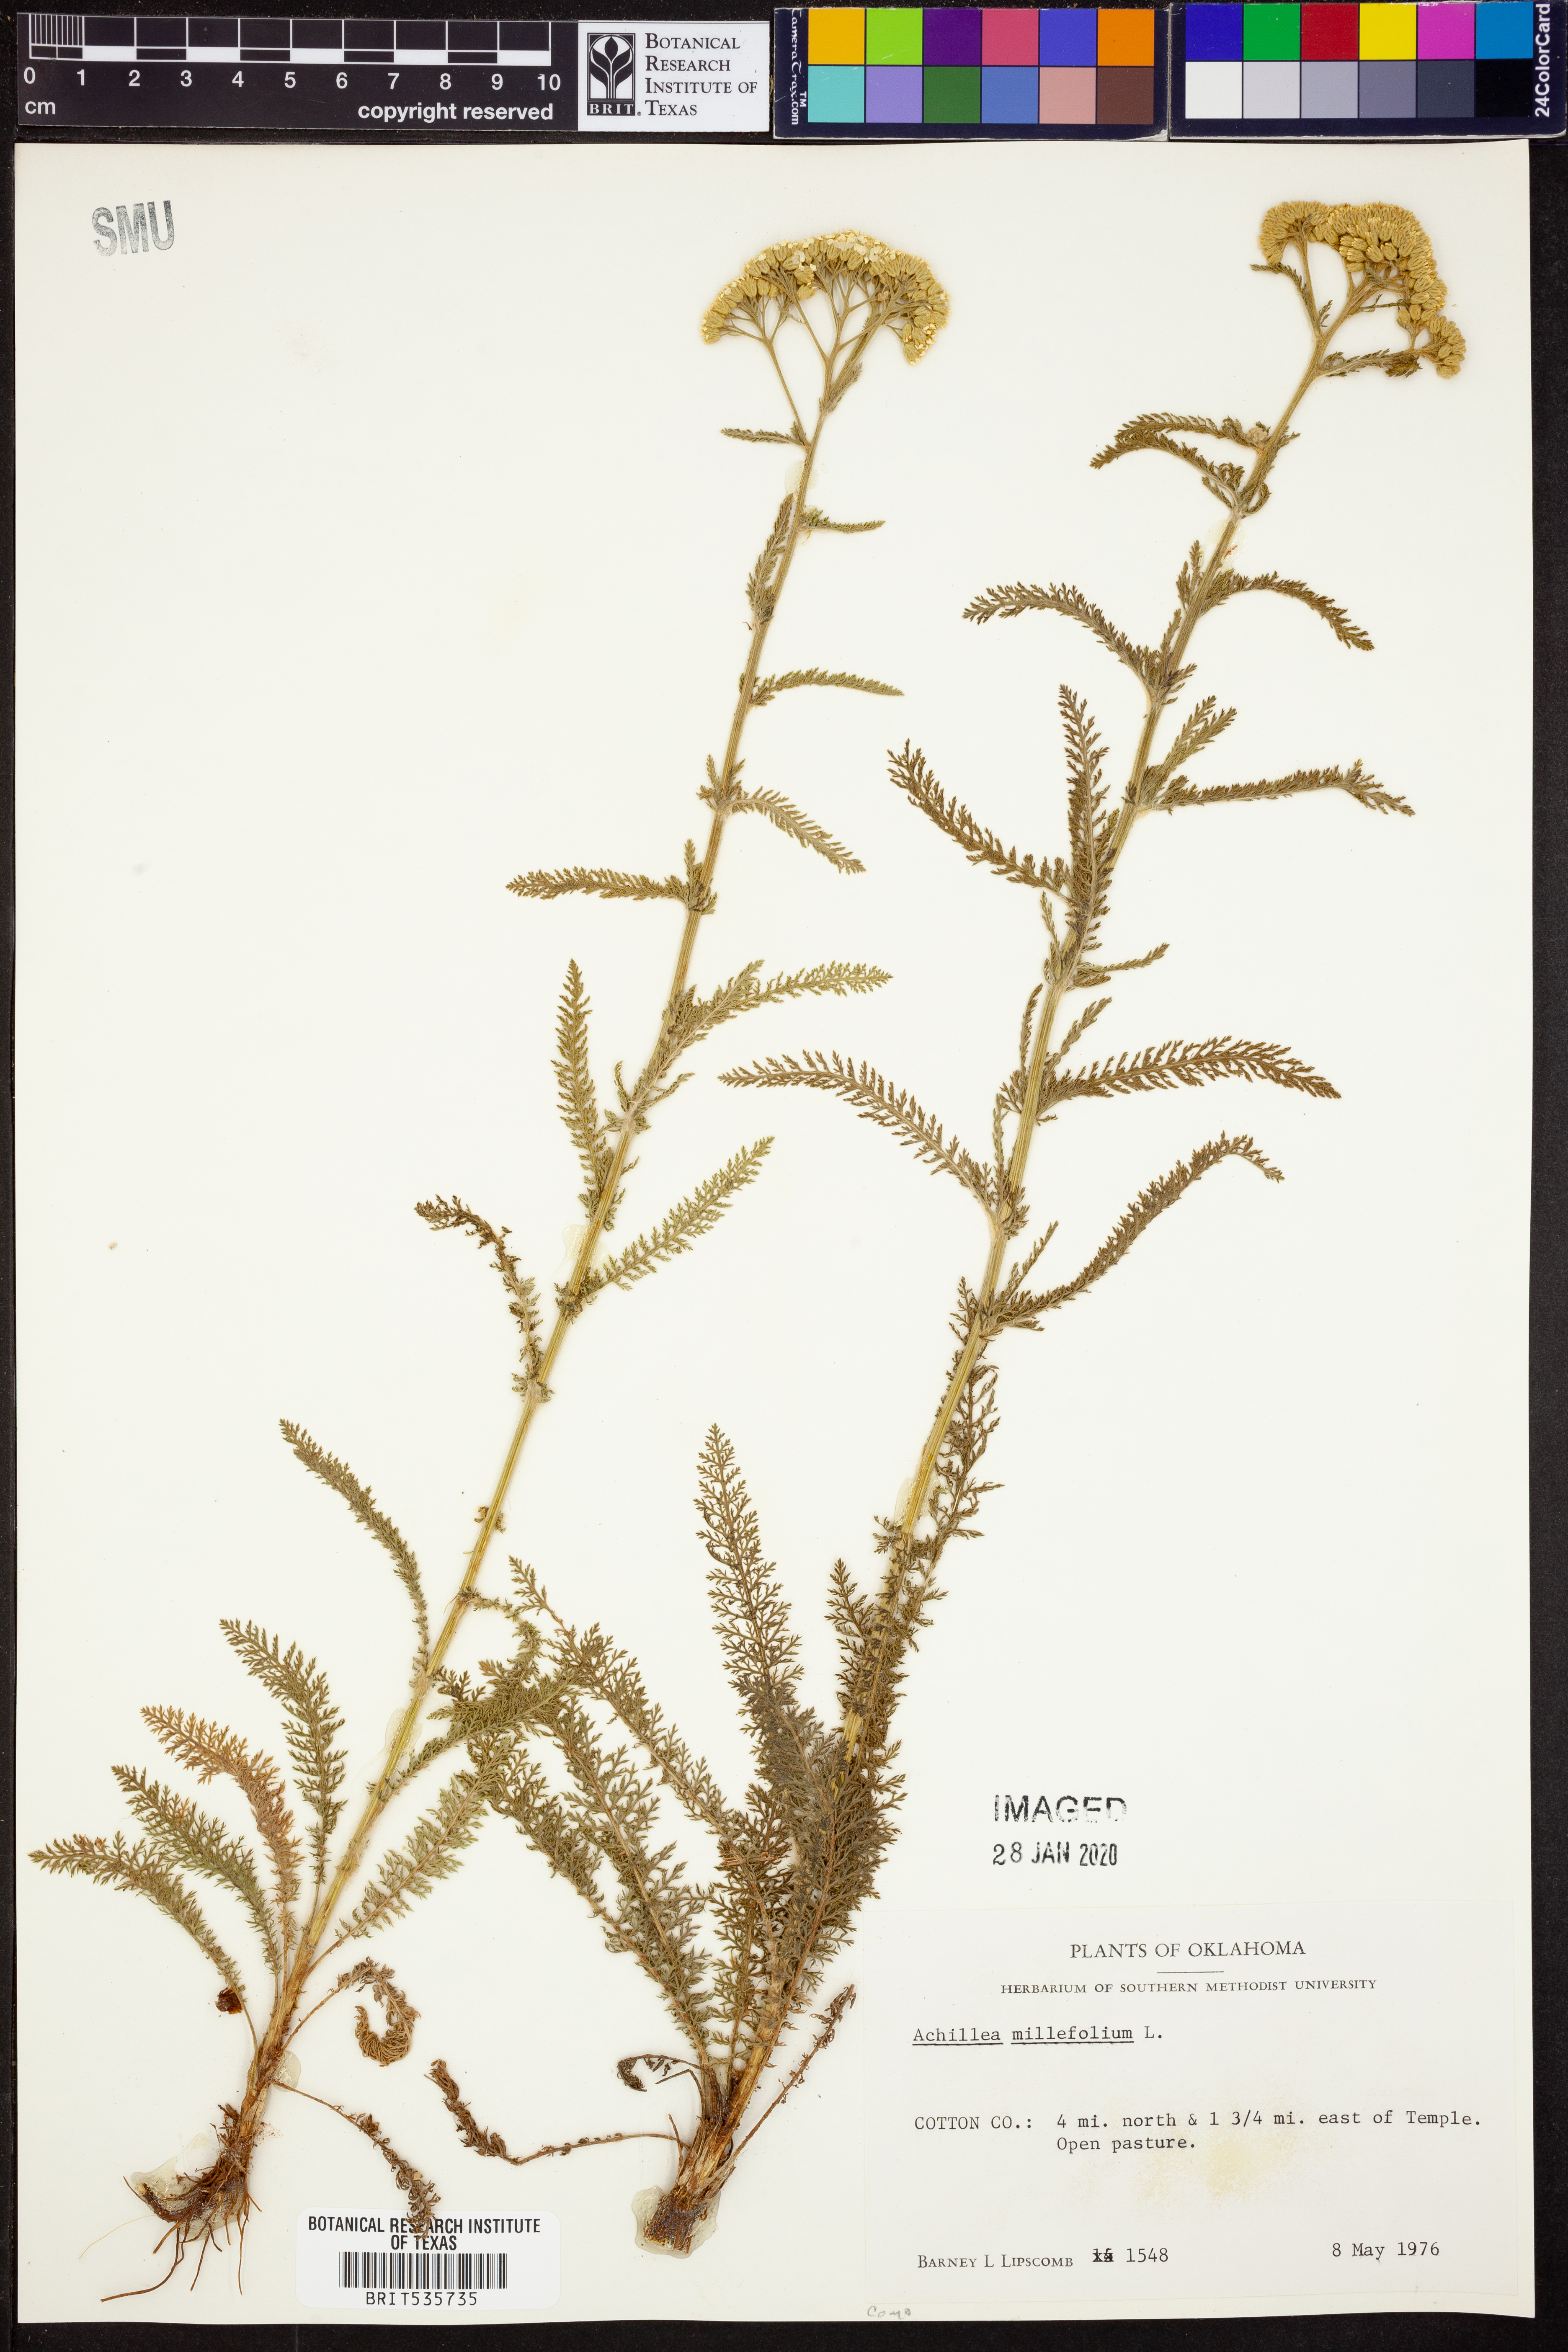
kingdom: Plantae
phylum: Tracheophyta
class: Magnoliopsida
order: Asterales
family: Asteraceae
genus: Achillea
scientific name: Achillea millefolium
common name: Yarrow
